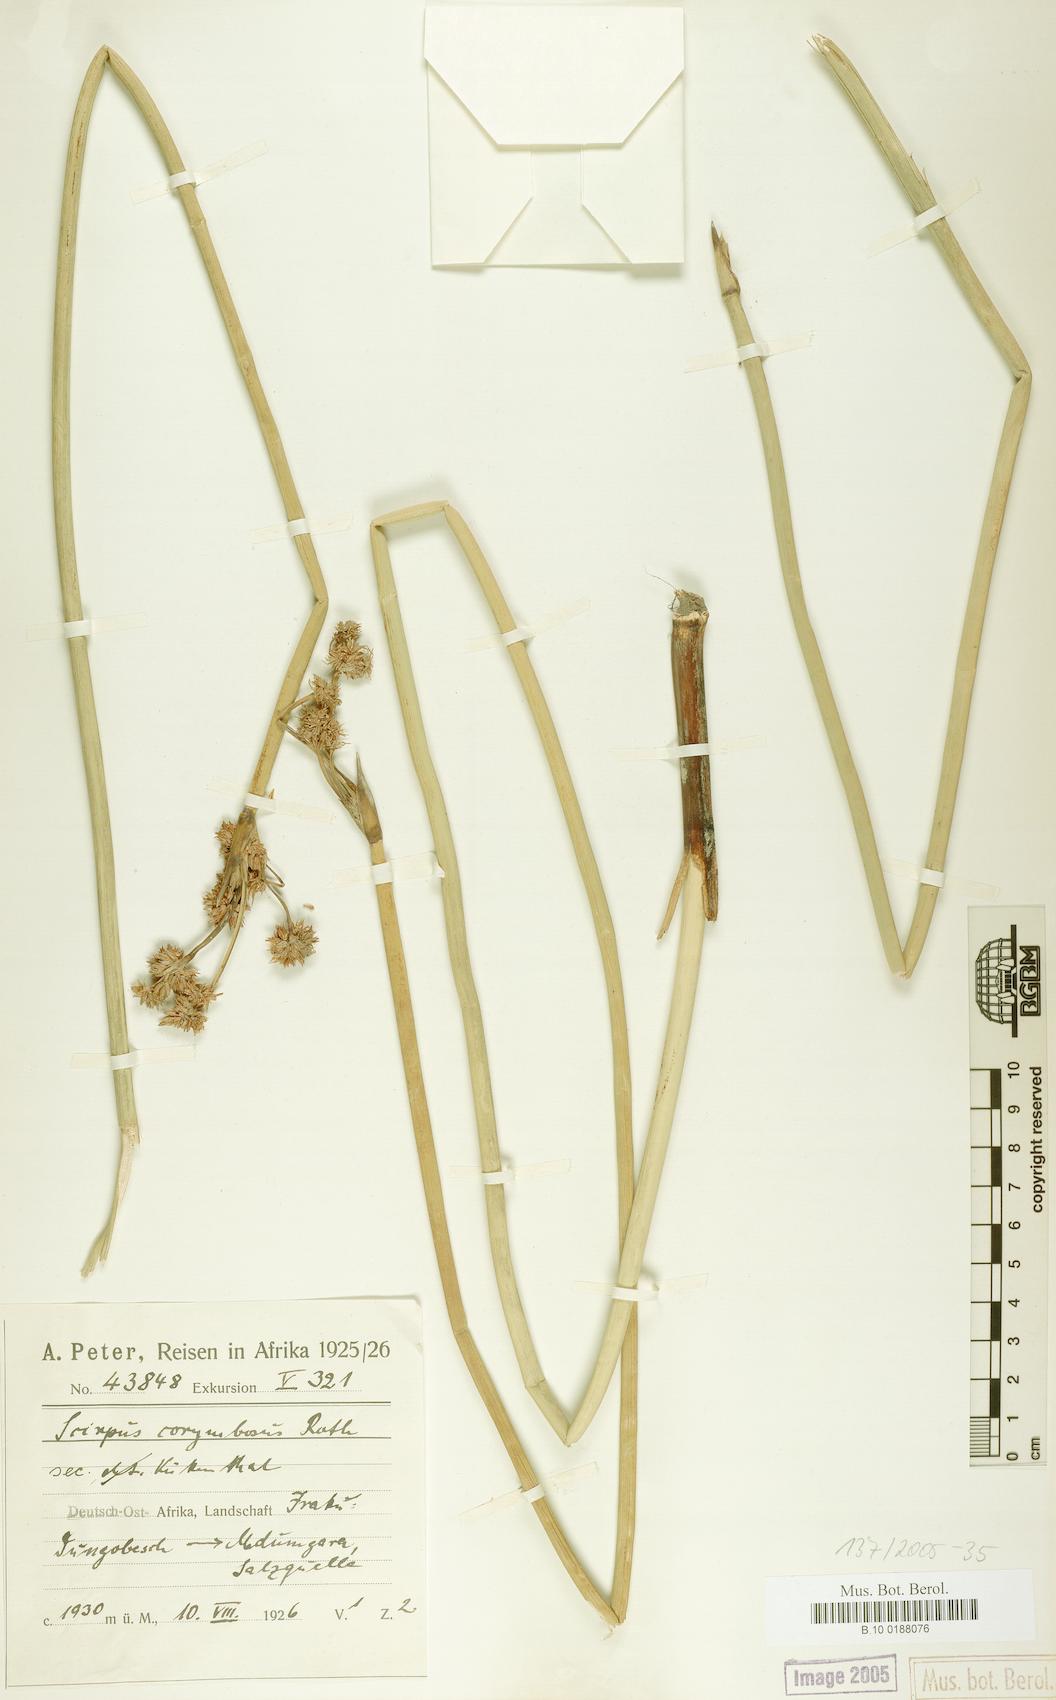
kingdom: Plantae
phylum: Tracheophyta
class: Liliopsida
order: Poales
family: Cyperaceae
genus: Schoenoplectiella
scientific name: Schoenoplectiella brachyceras
